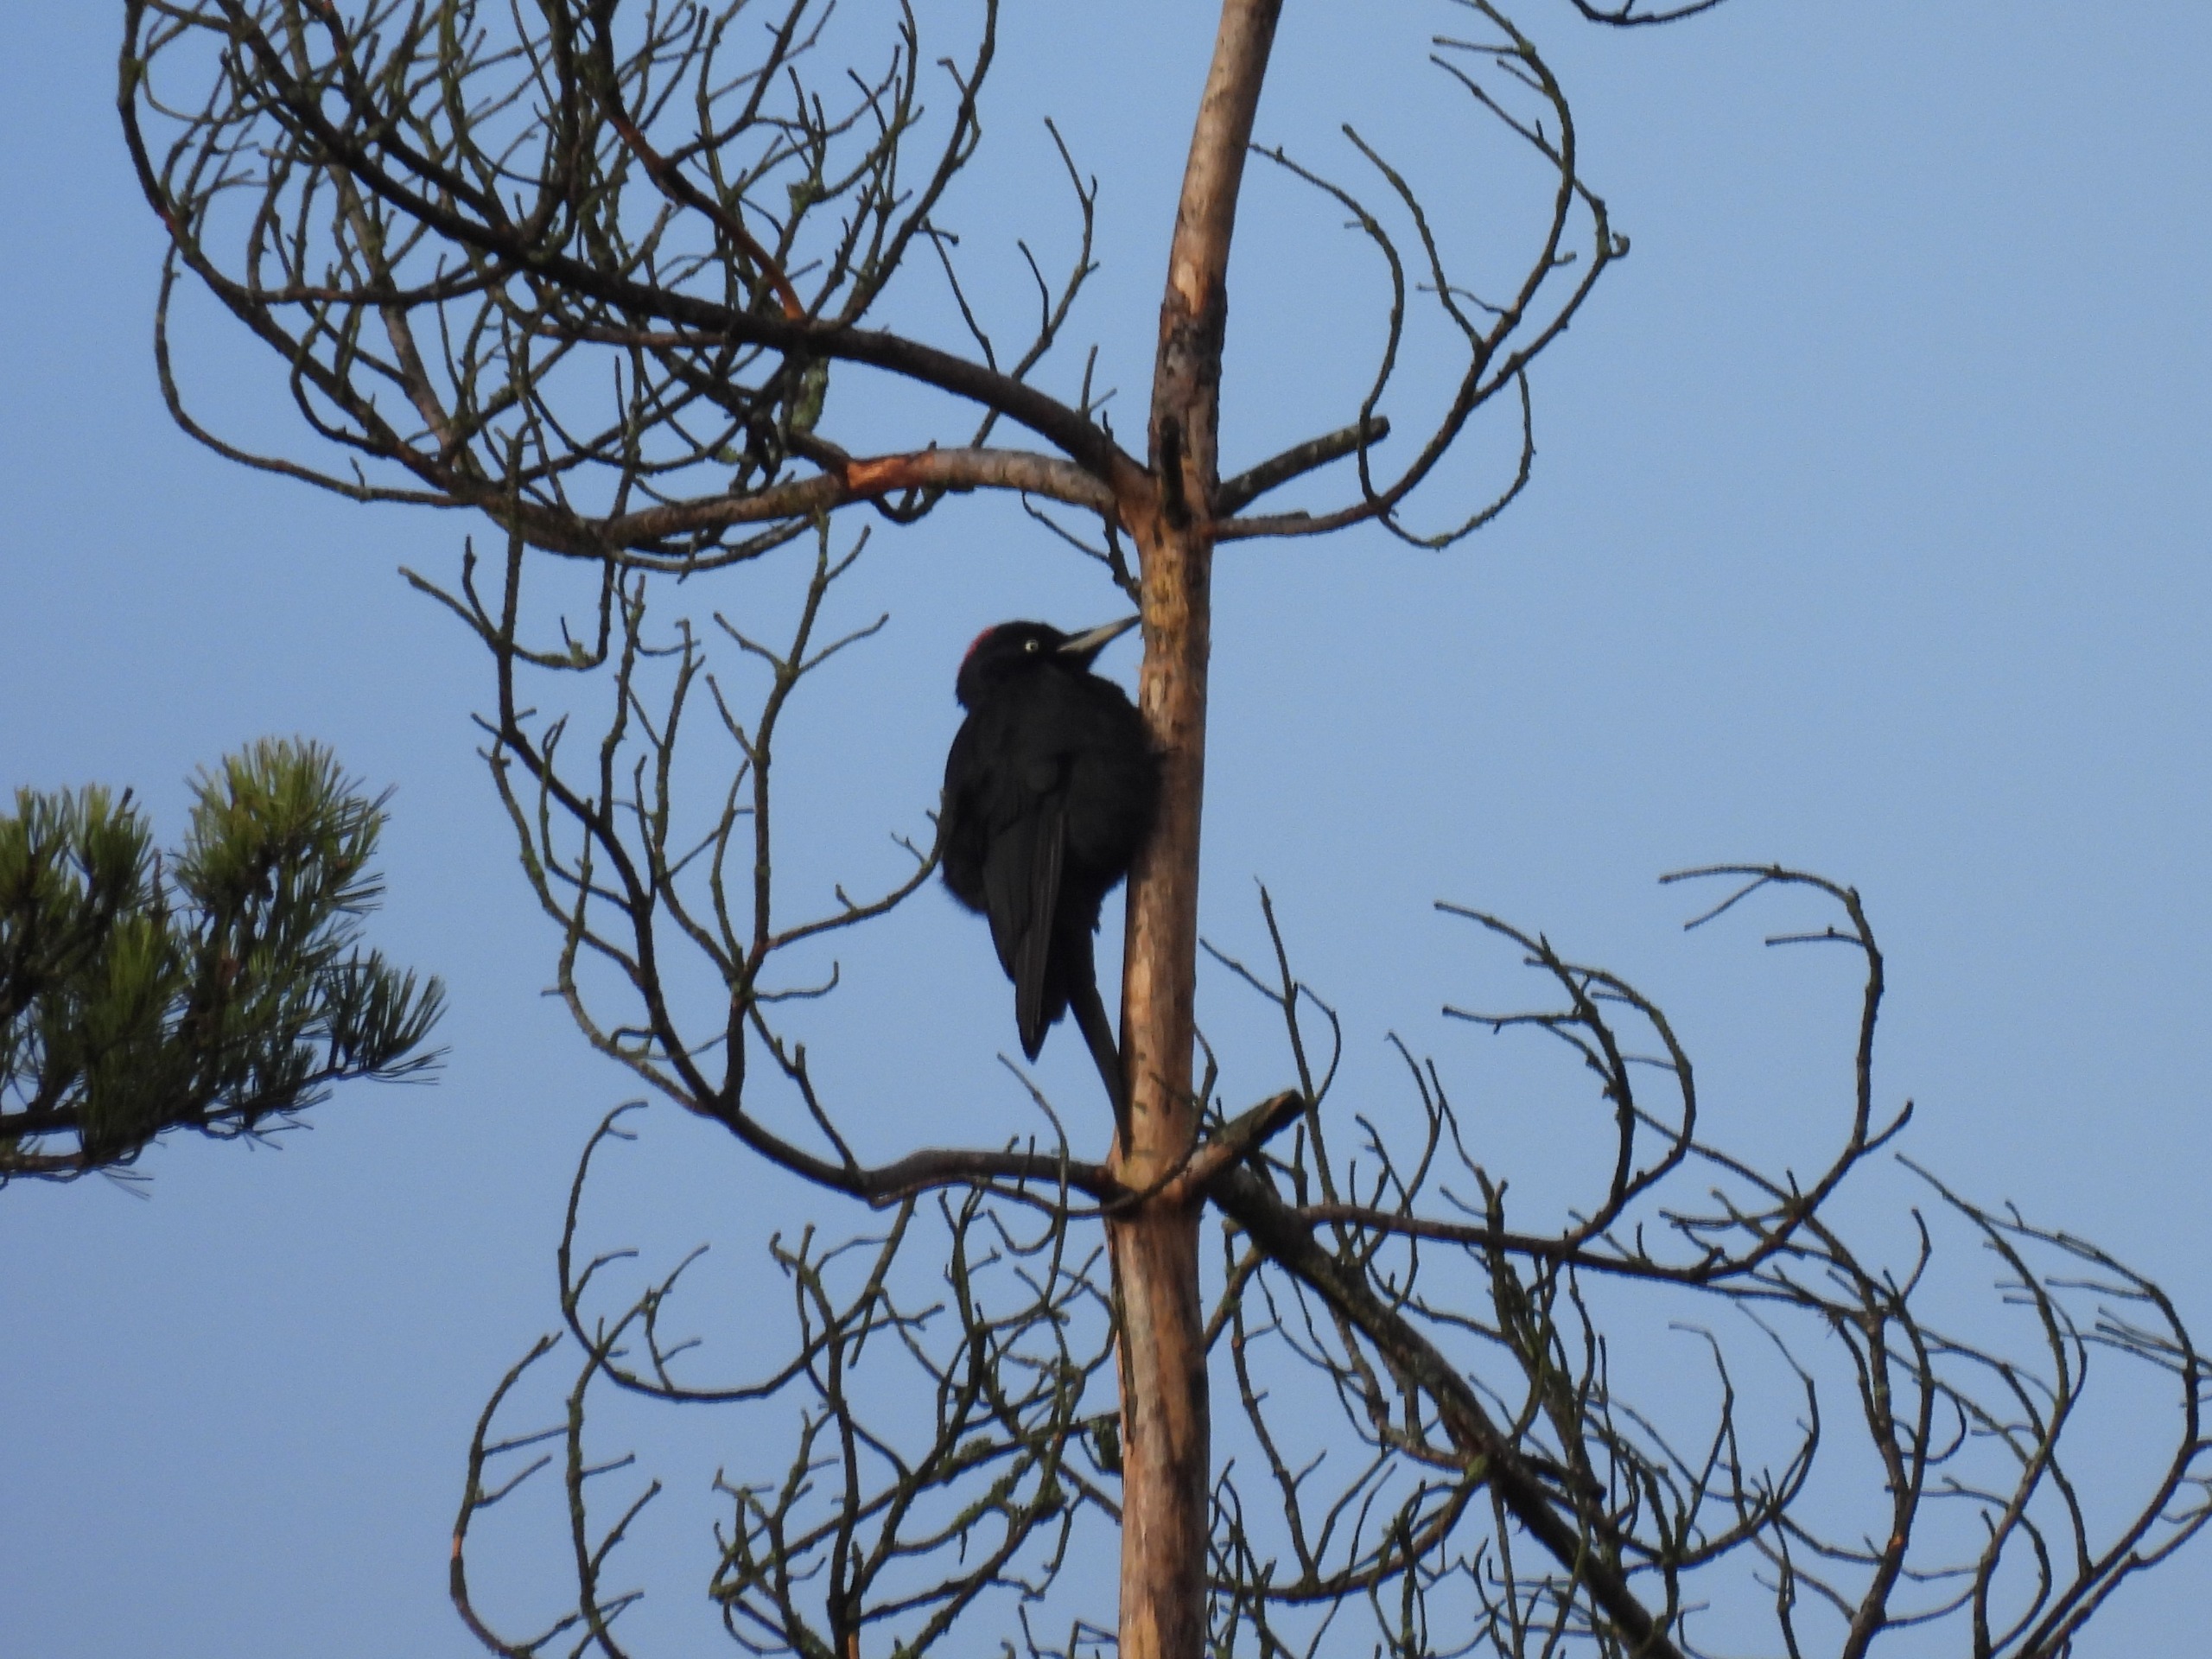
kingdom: Animalia
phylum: Chordata
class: Aves
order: Piciformes
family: Picidae
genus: Dryocopus
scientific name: Dryocopus martius
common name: Sortspætte
